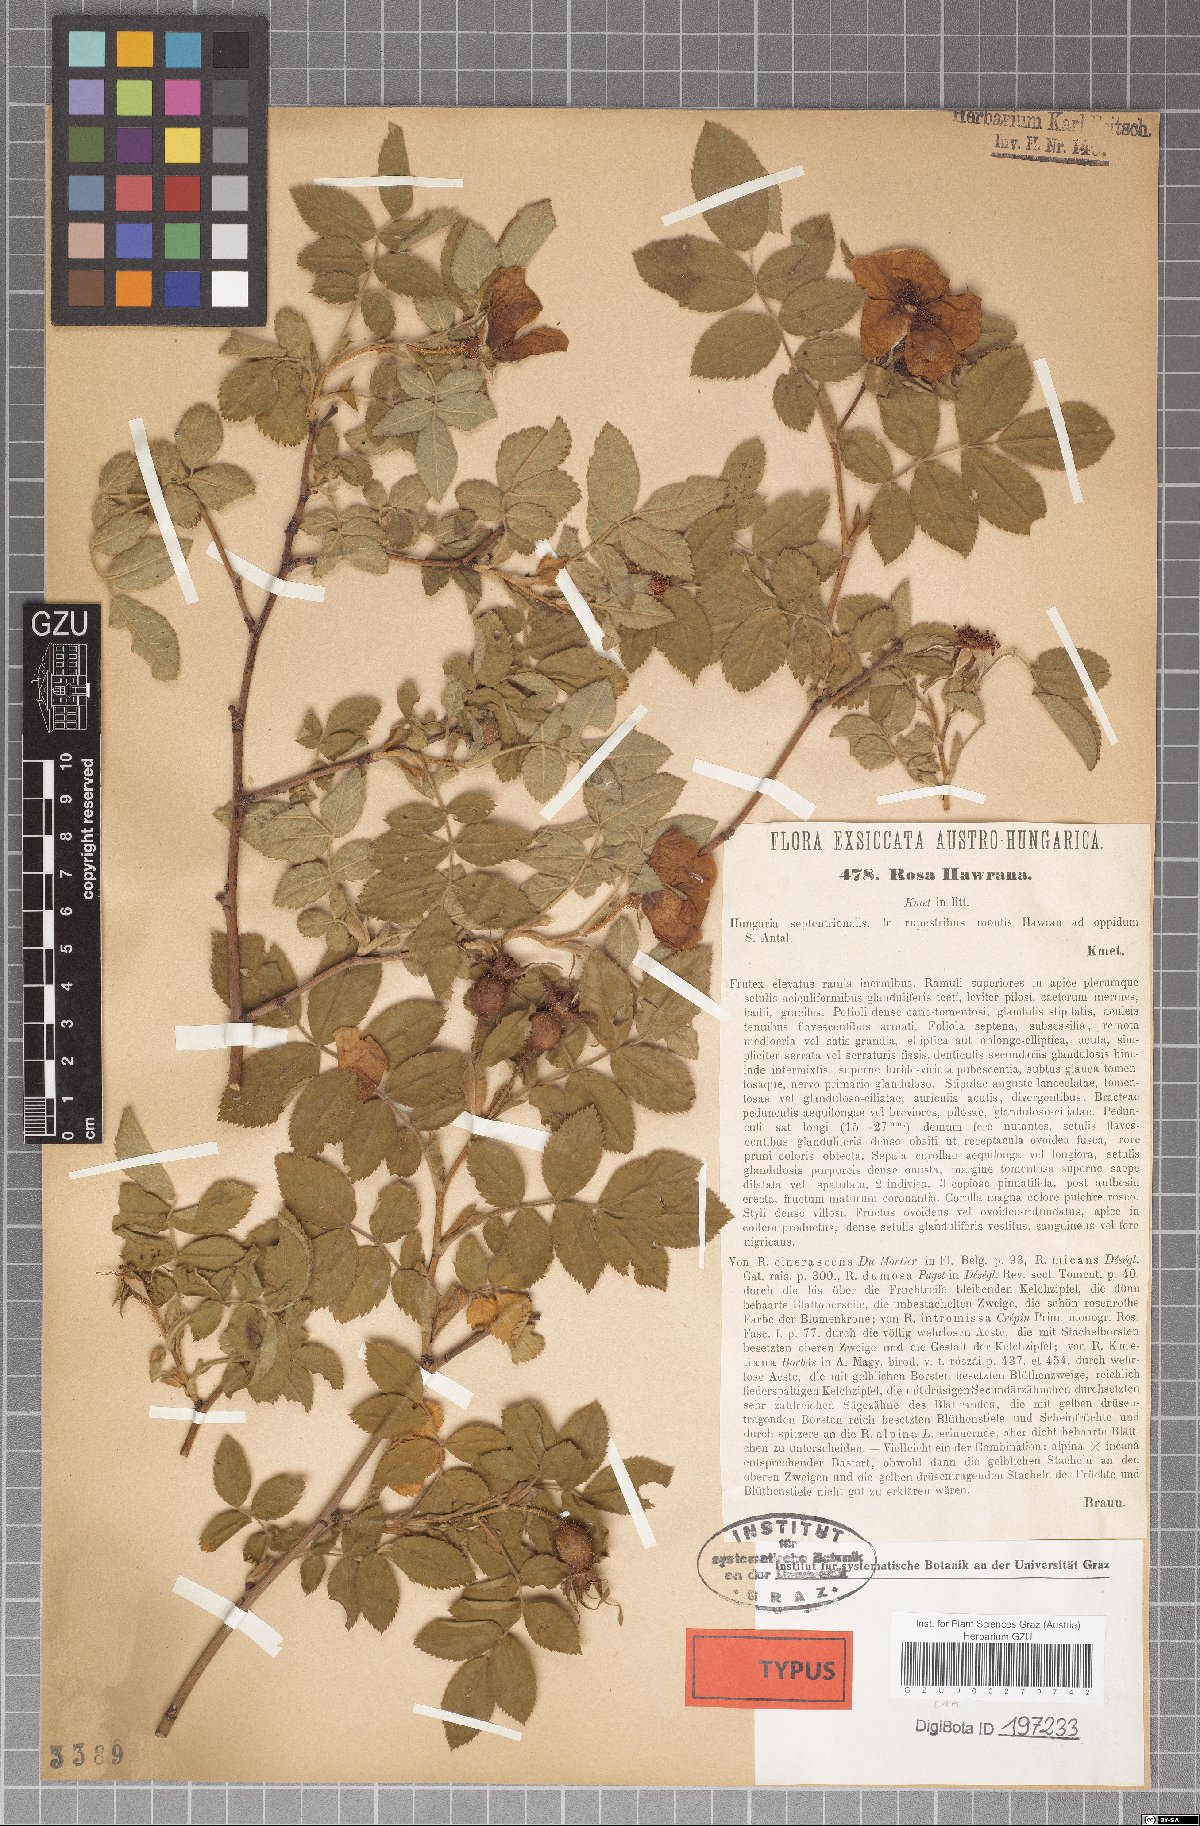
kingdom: Plantae
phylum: Tracheophyta
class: Magnoliopsida
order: Rosales
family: Rosaceae
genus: Rosa
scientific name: Rosa pseudoscabriuscula
